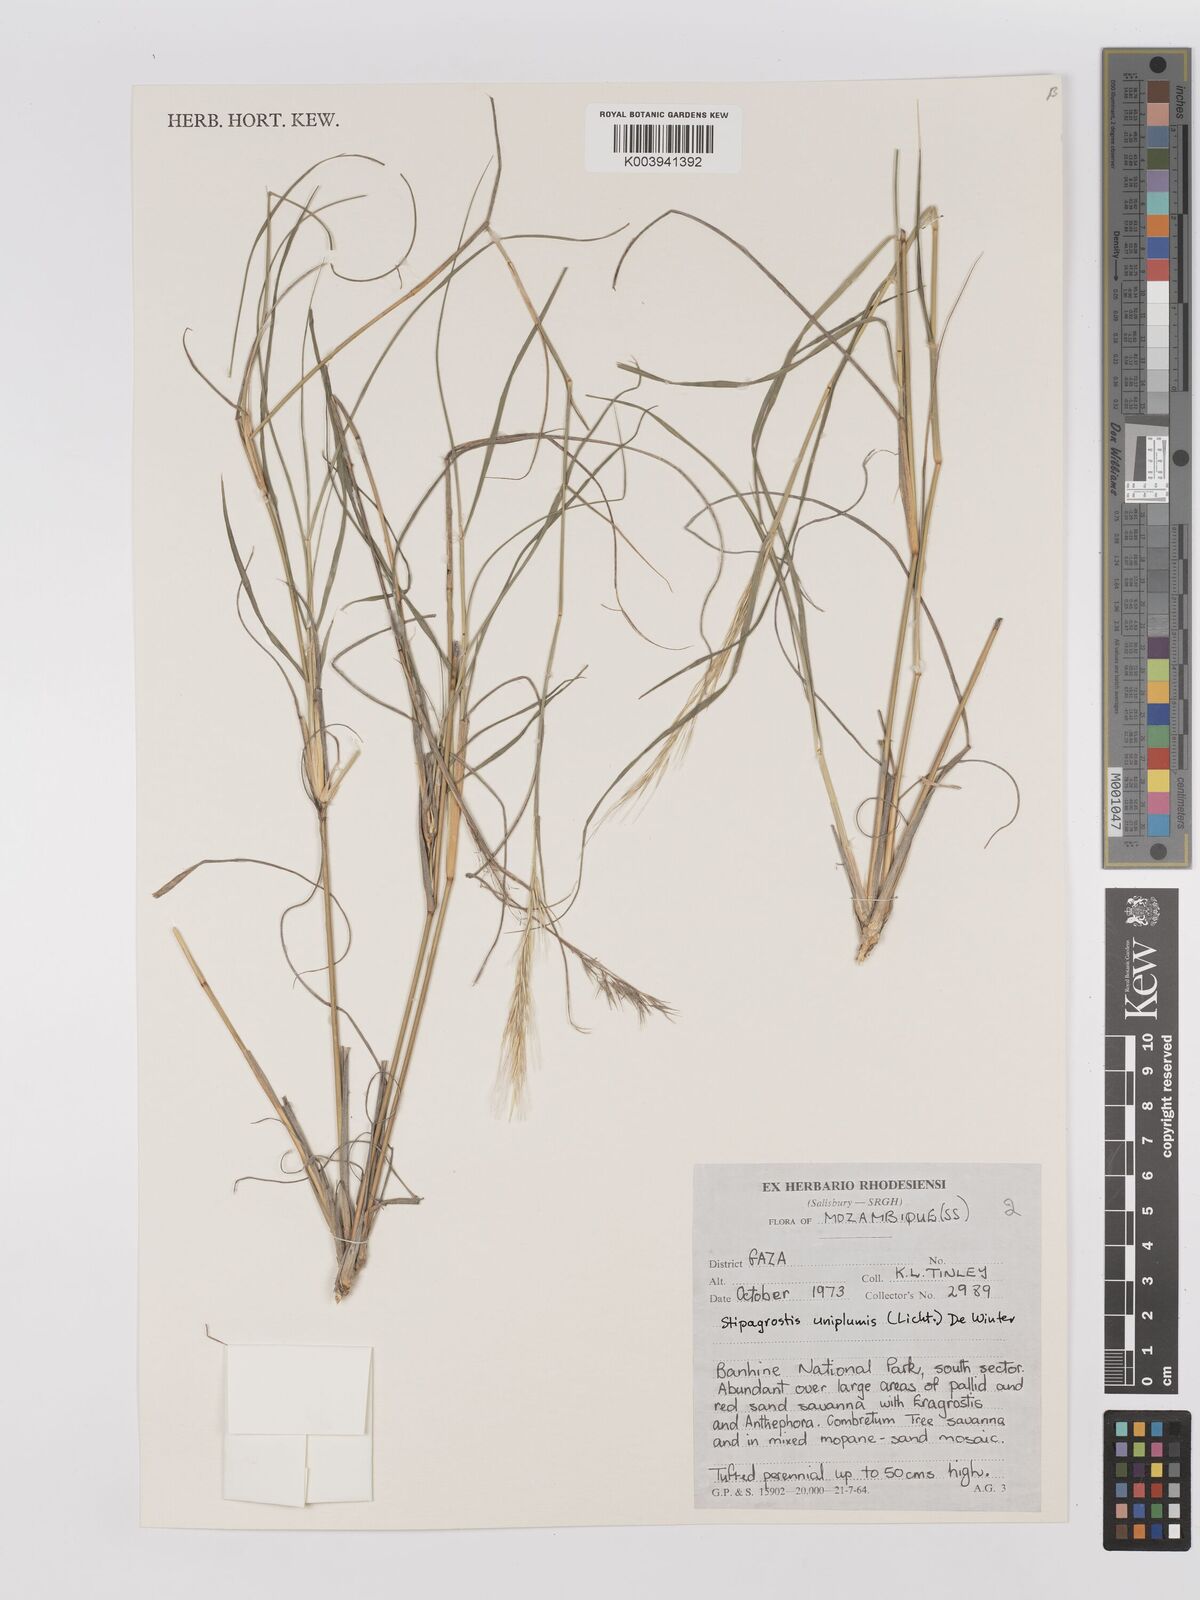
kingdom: Plantae
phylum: Tracheophyta
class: Liliopsida
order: Poales
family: Poaceae
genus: Stipagrostis
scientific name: Stipagrostis uniplumis
